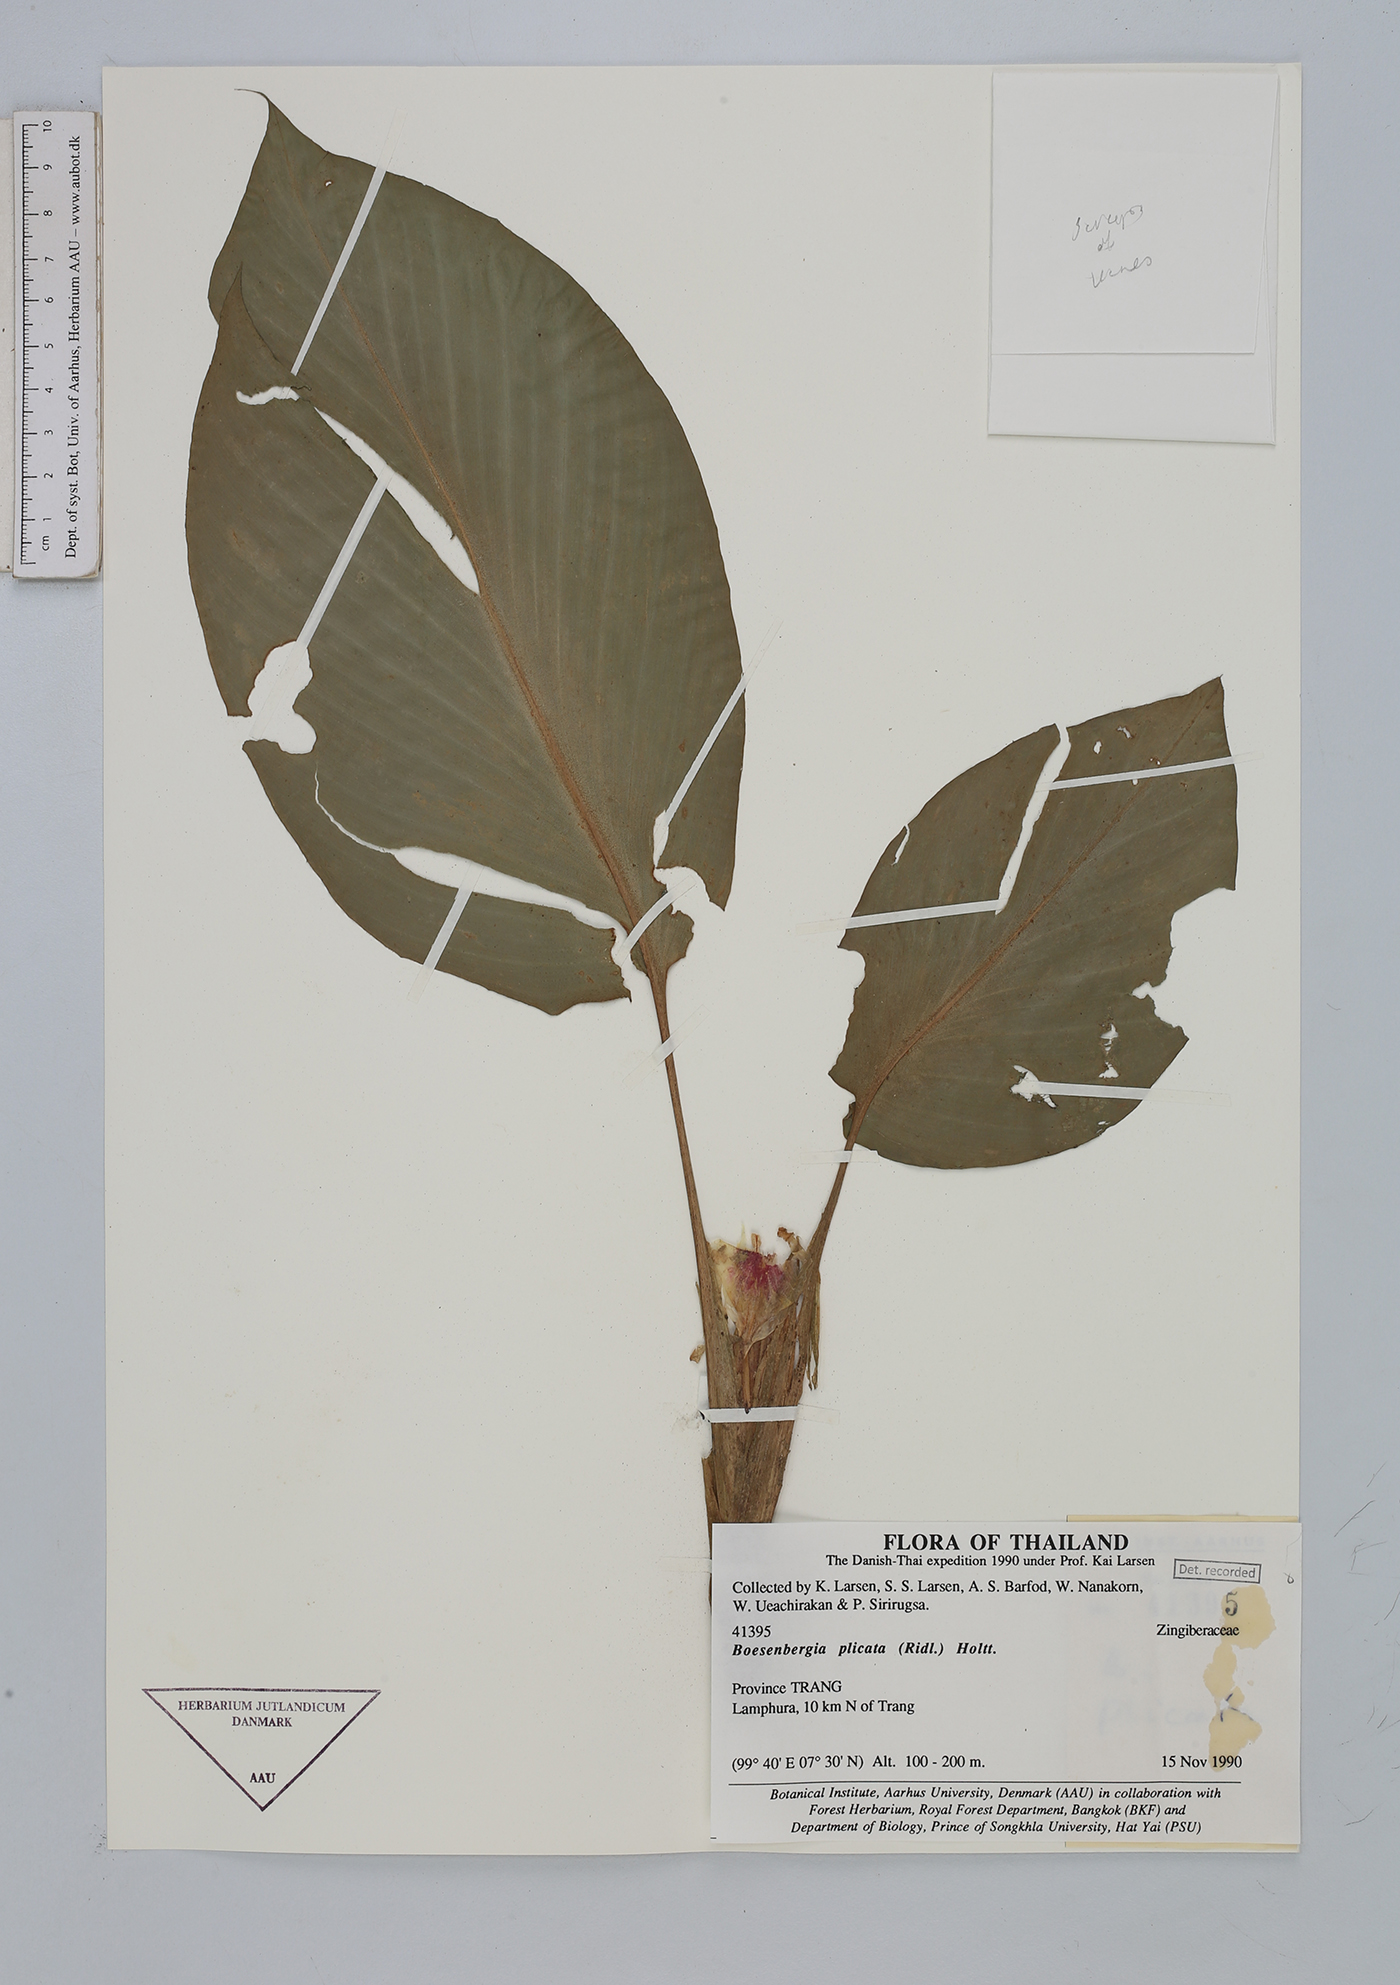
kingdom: Plantae
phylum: Tracheophyta
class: Liliopsida
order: Zingiberales
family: Zingiberaceae
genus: Boesenbergia
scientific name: Boesenbergia plicata
